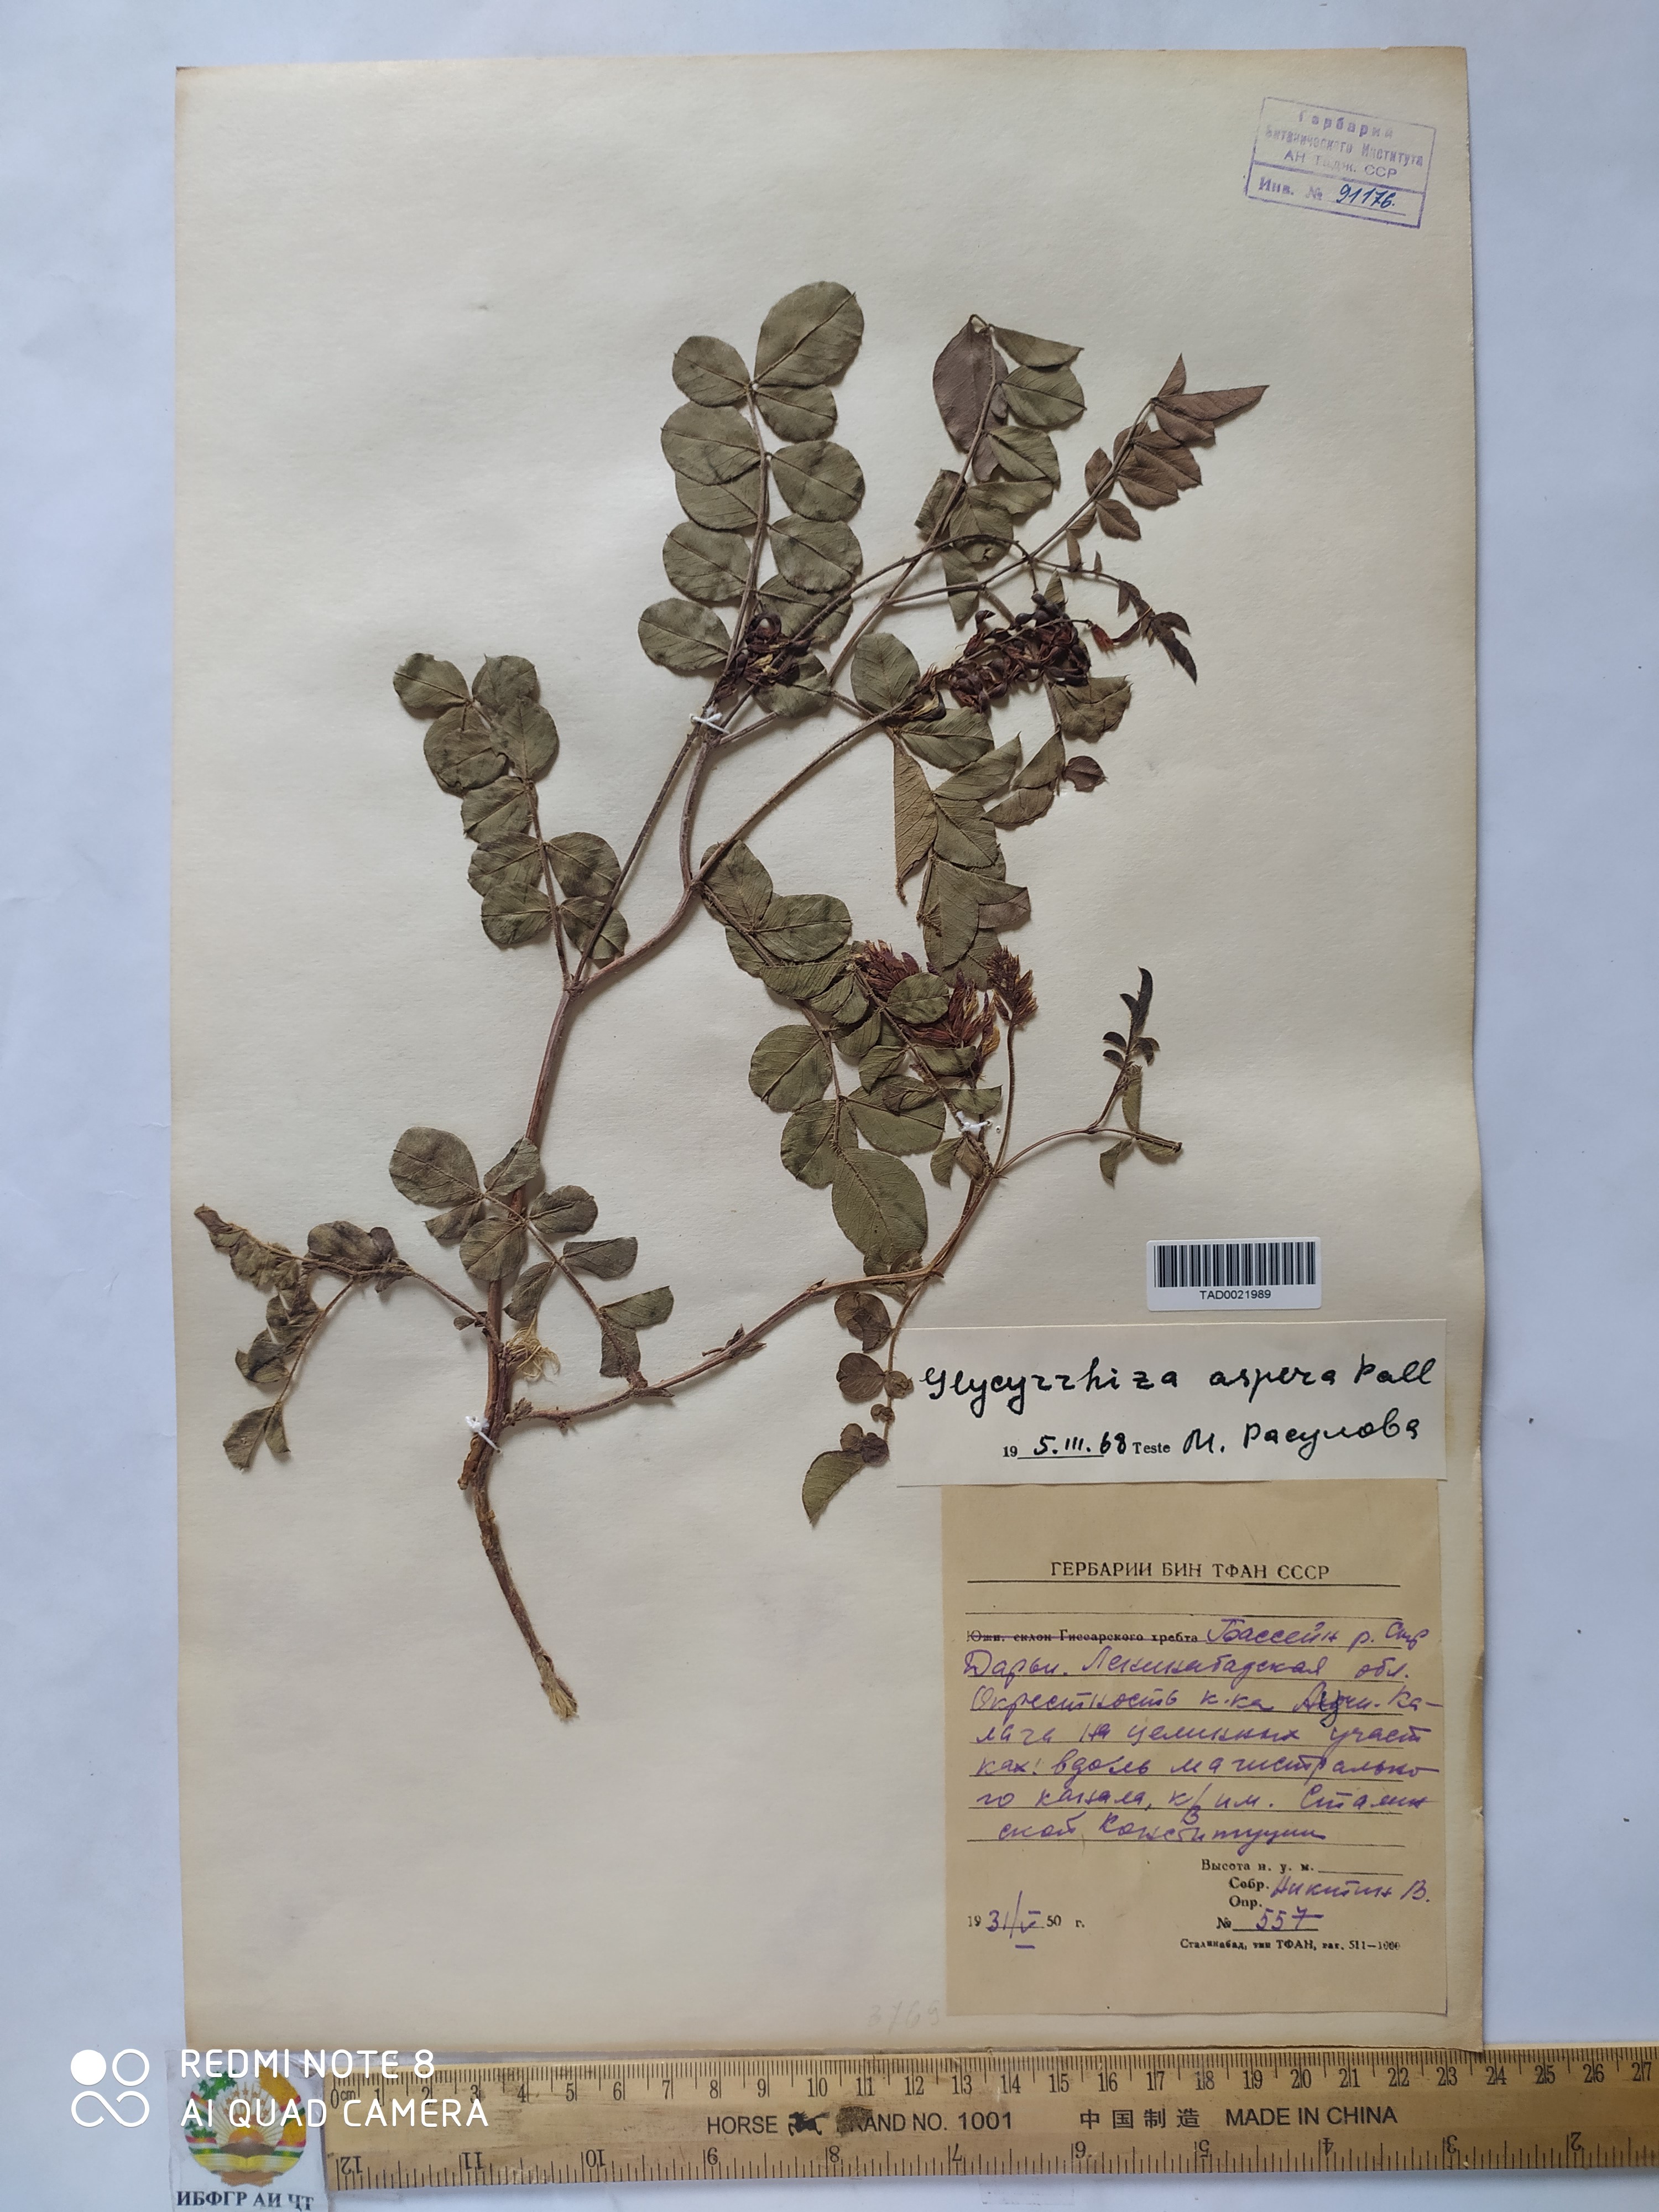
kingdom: Plantae
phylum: Tracheophyta
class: Magnoliopsida
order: Fabales
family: Fabaceae
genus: Glycyrrhiza
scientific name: Glycyrrhiza glabra
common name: Liquorice
